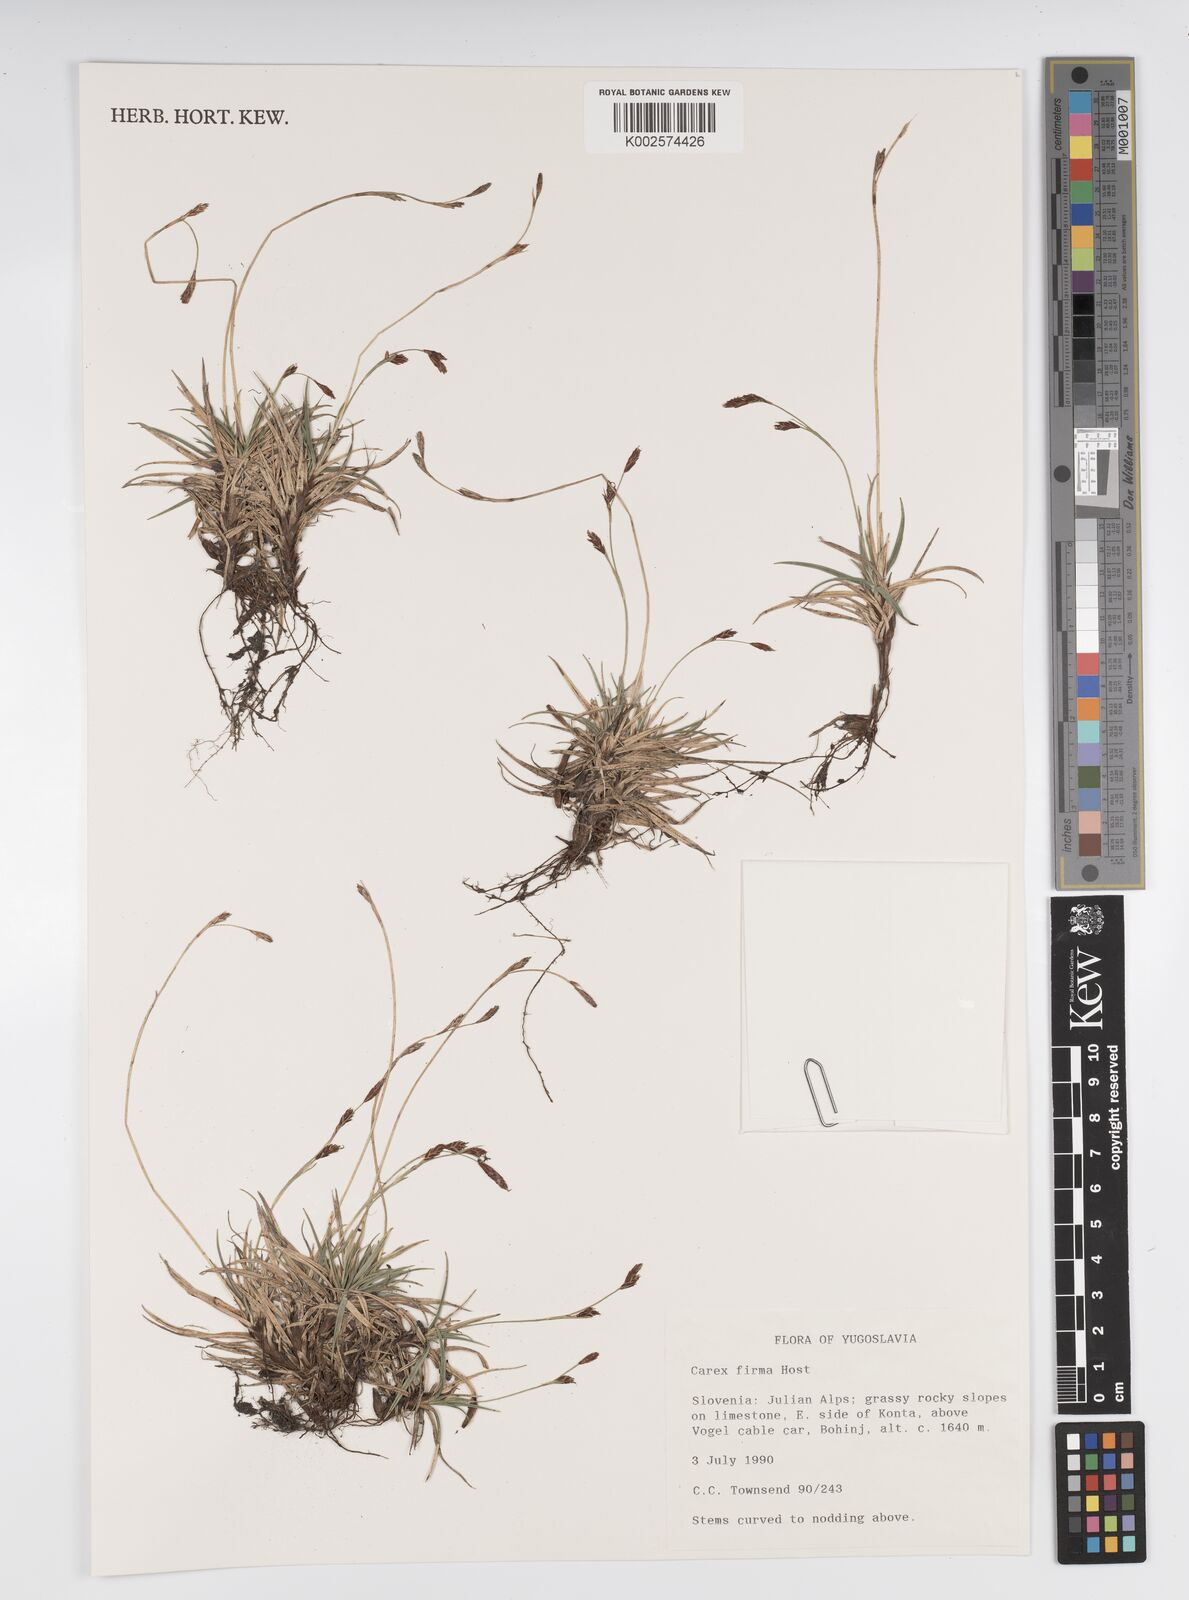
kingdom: Plantae
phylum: Tracheophyta
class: Liliopsida
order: Poales
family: Cyperaceae
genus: Carex
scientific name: Carex firma
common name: Dwarf pillow sedge
